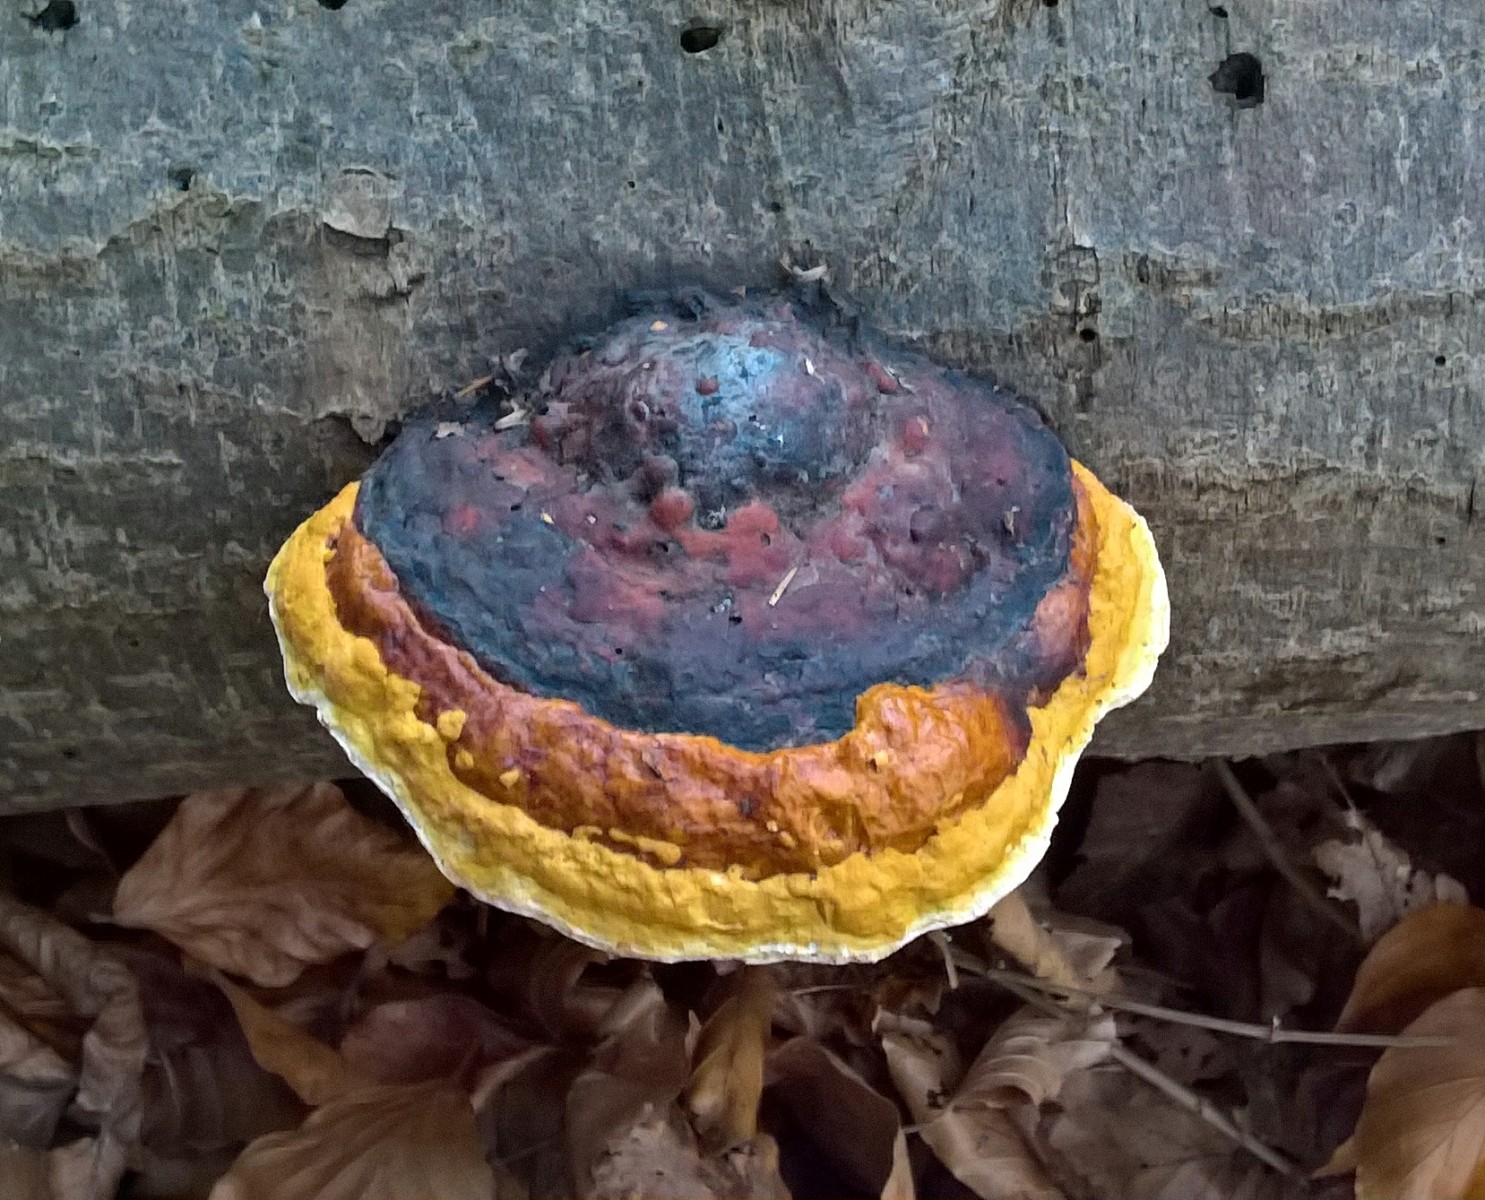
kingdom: Fungi
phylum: Basidiomycota
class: Agaricomycetes
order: Polyporales
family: Fomitopsidaceae
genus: Fomitopsis
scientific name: Fomitopsis pinicola
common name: randbæltet hovporesvamp
